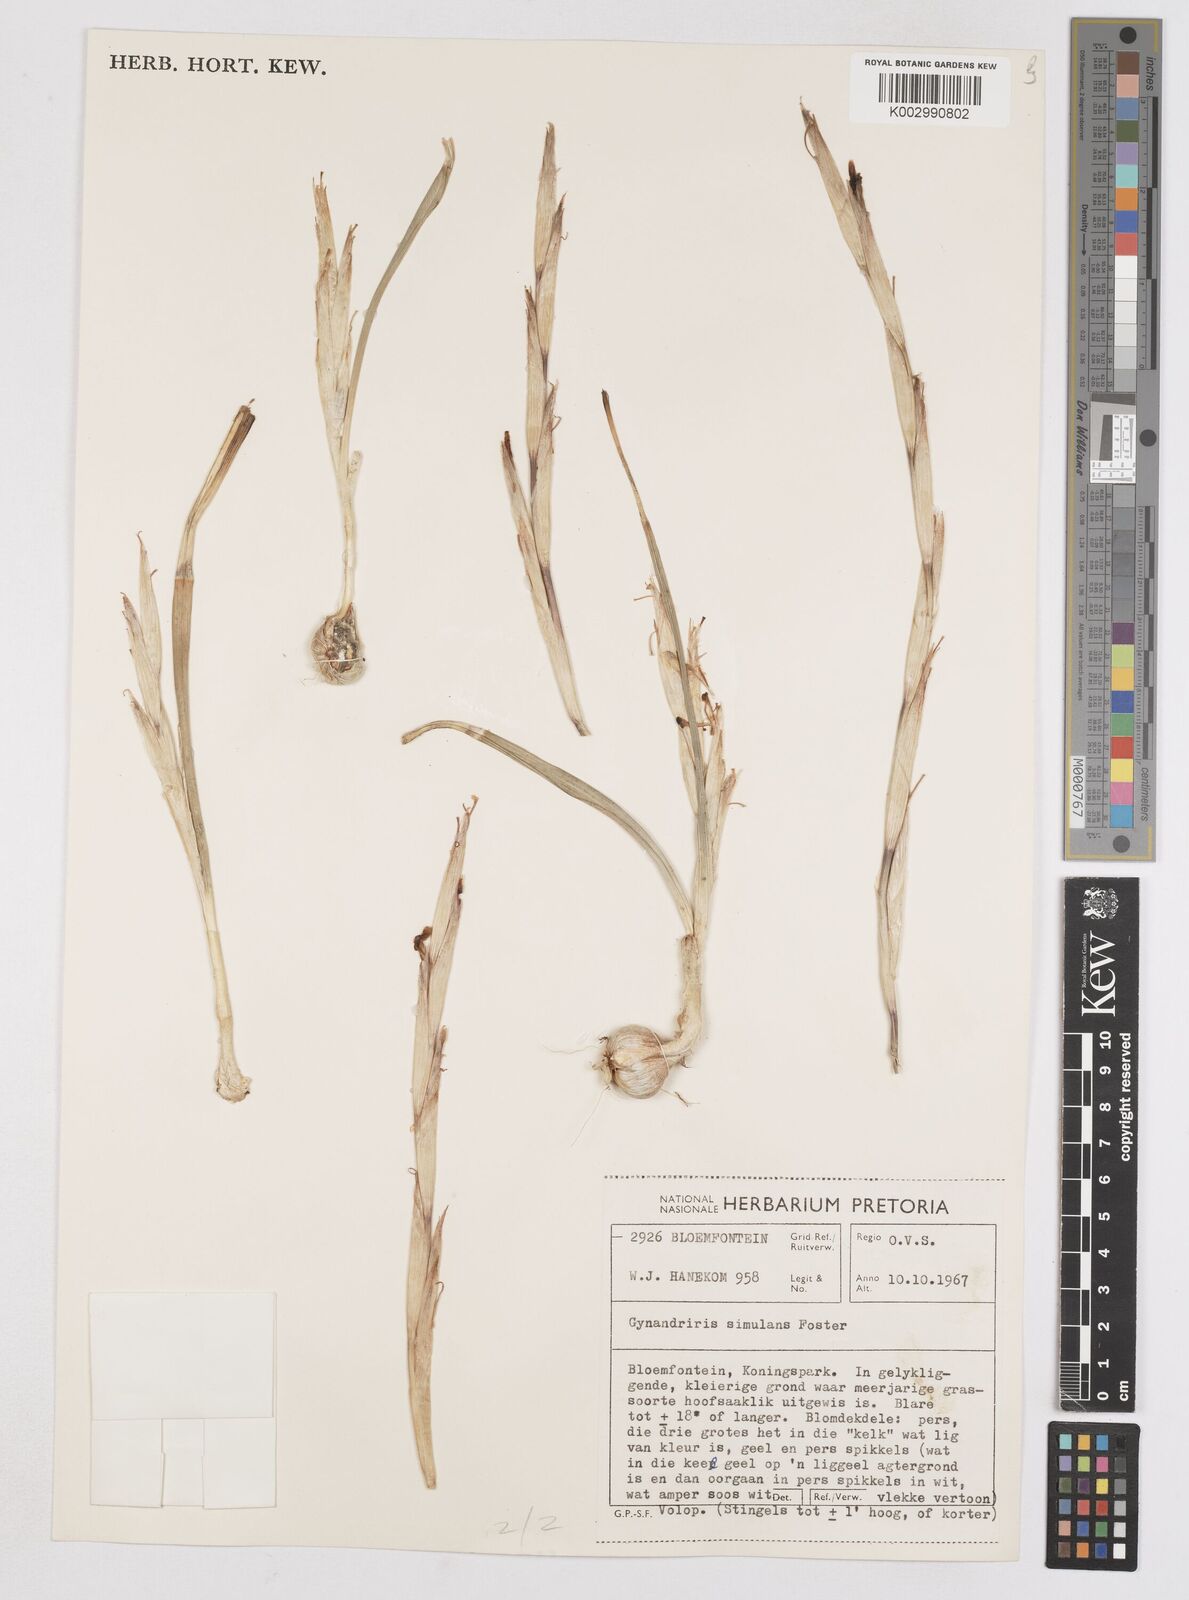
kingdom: Plantae
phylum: Tracheophyta
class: Liliopsida
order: Asparagales
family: Iridaceae
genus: Moraea
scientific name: Moraea simulans
